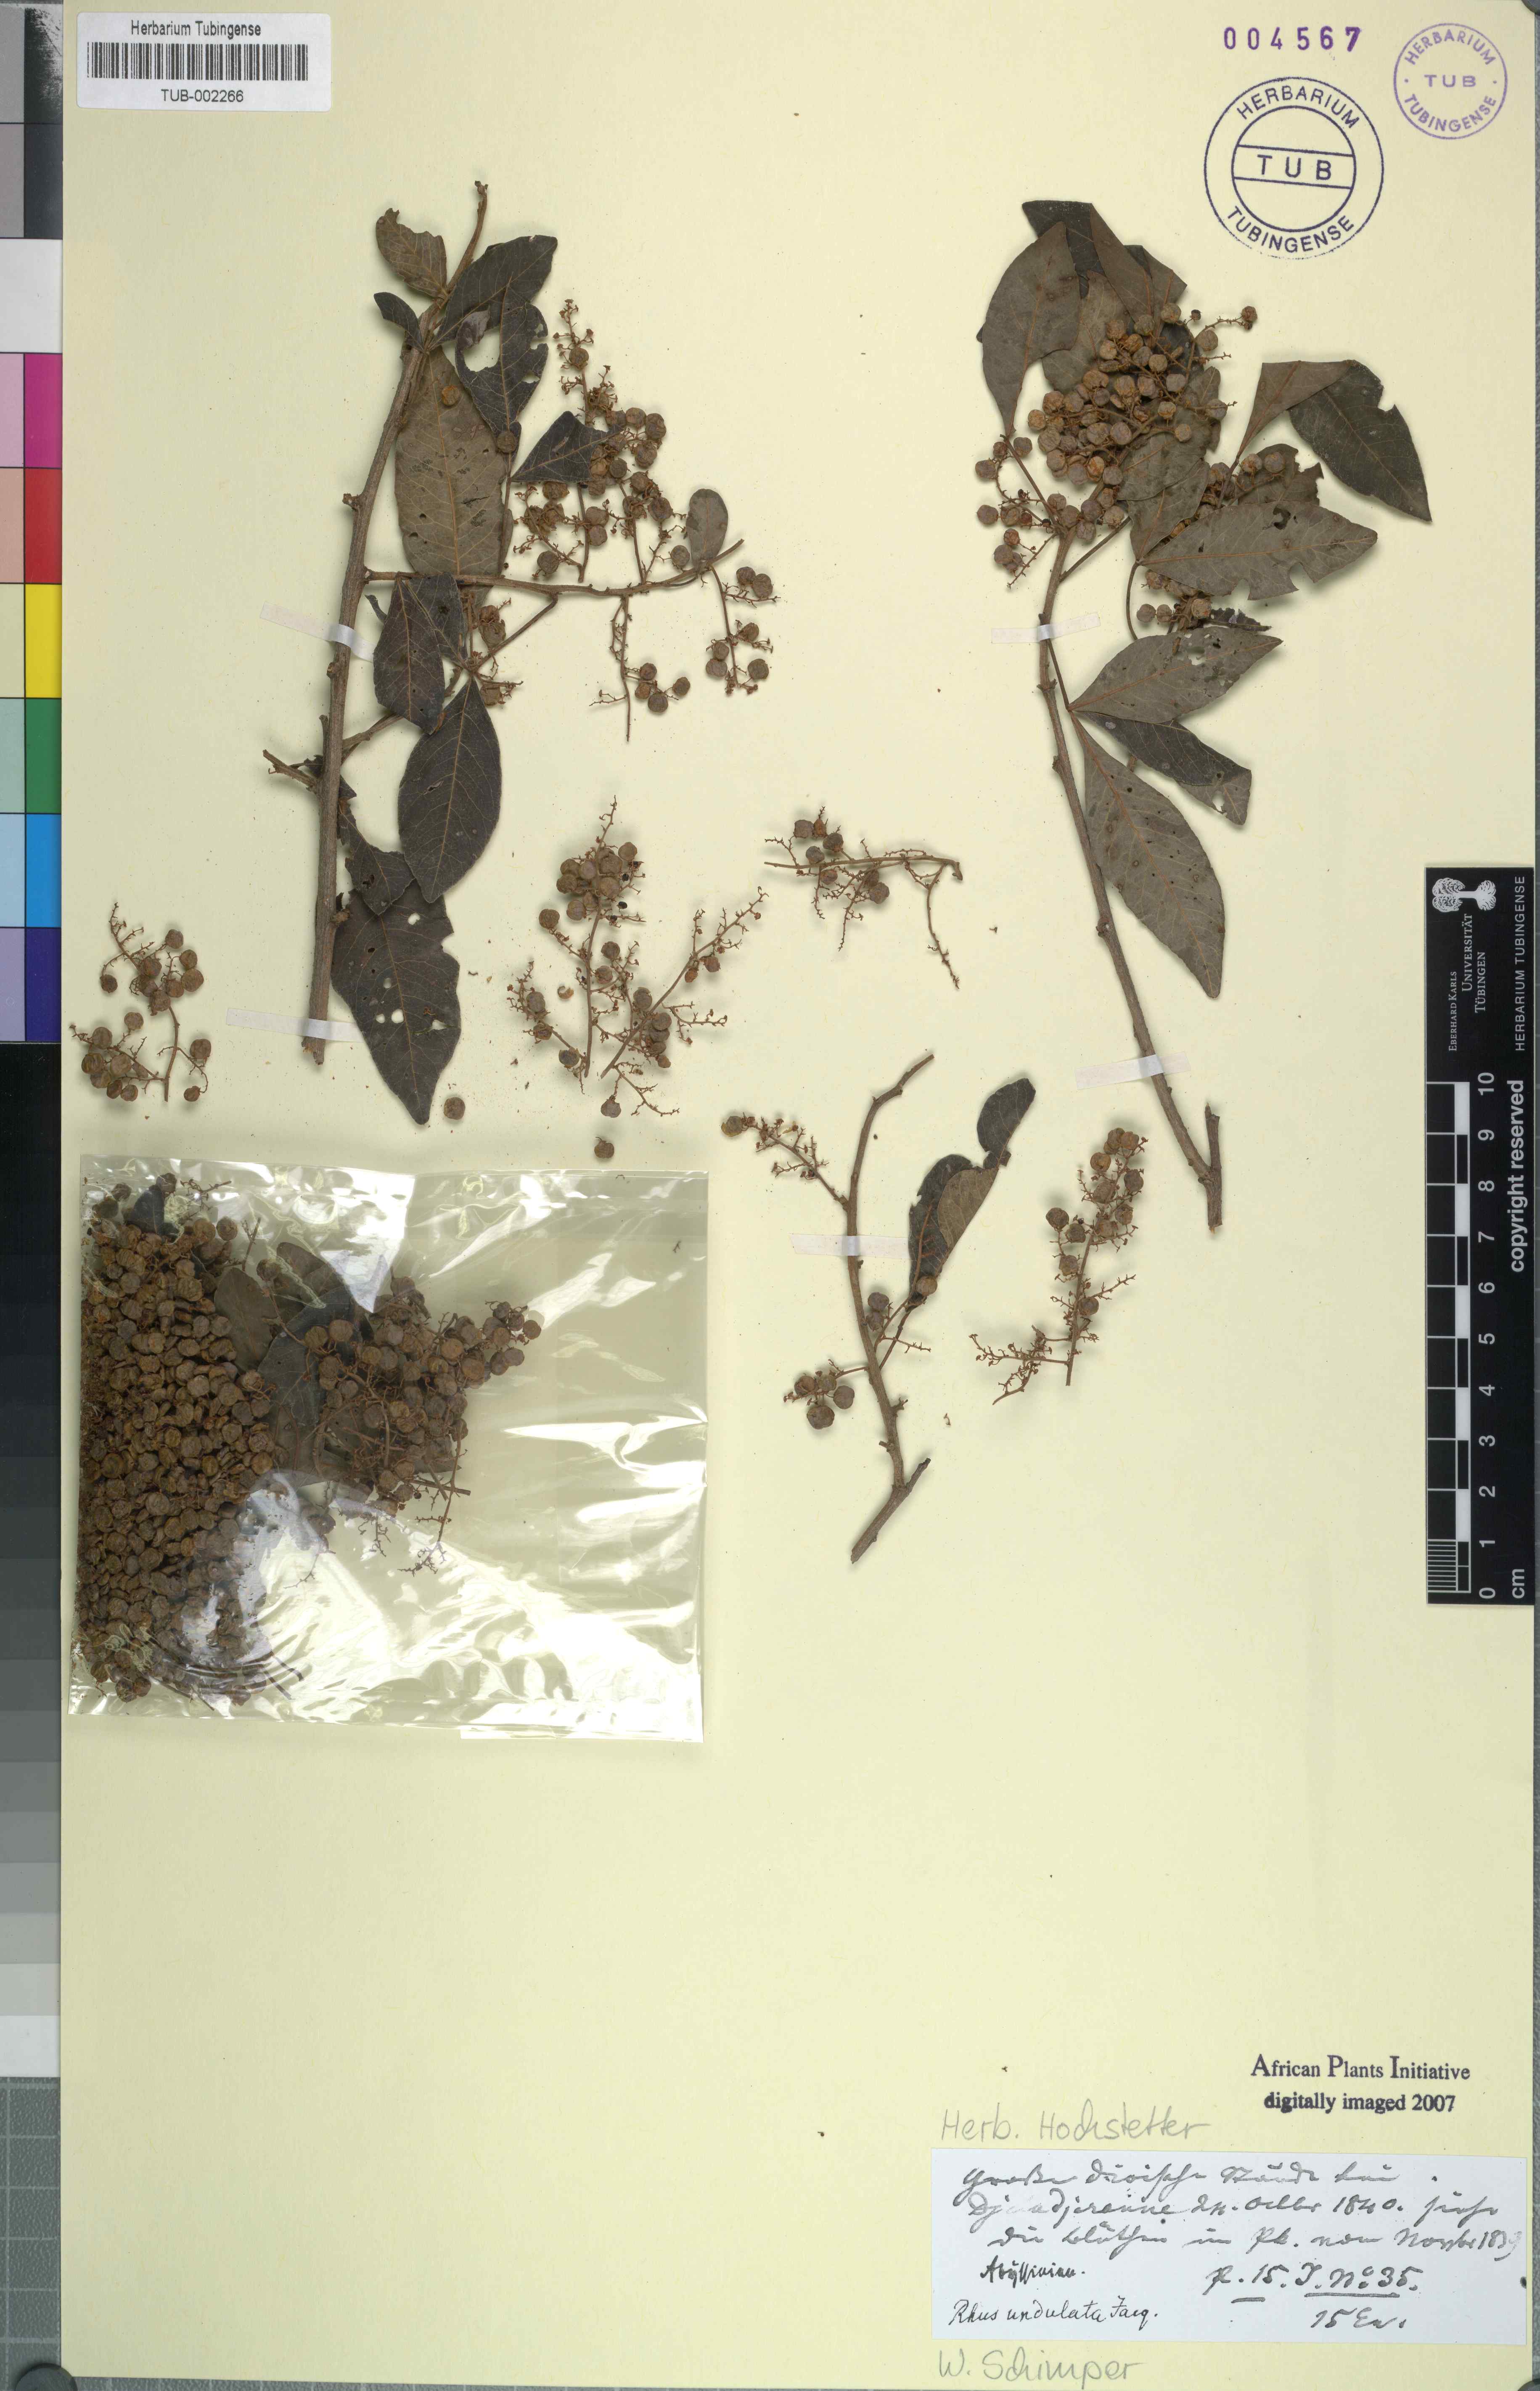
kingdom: Plantae
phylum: Tracheophyta
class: Magnoliopsida
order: Sapindales
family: Anacardiaceae
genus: Searsia
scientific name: Searsia undulata
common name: Namaqua kunibush
